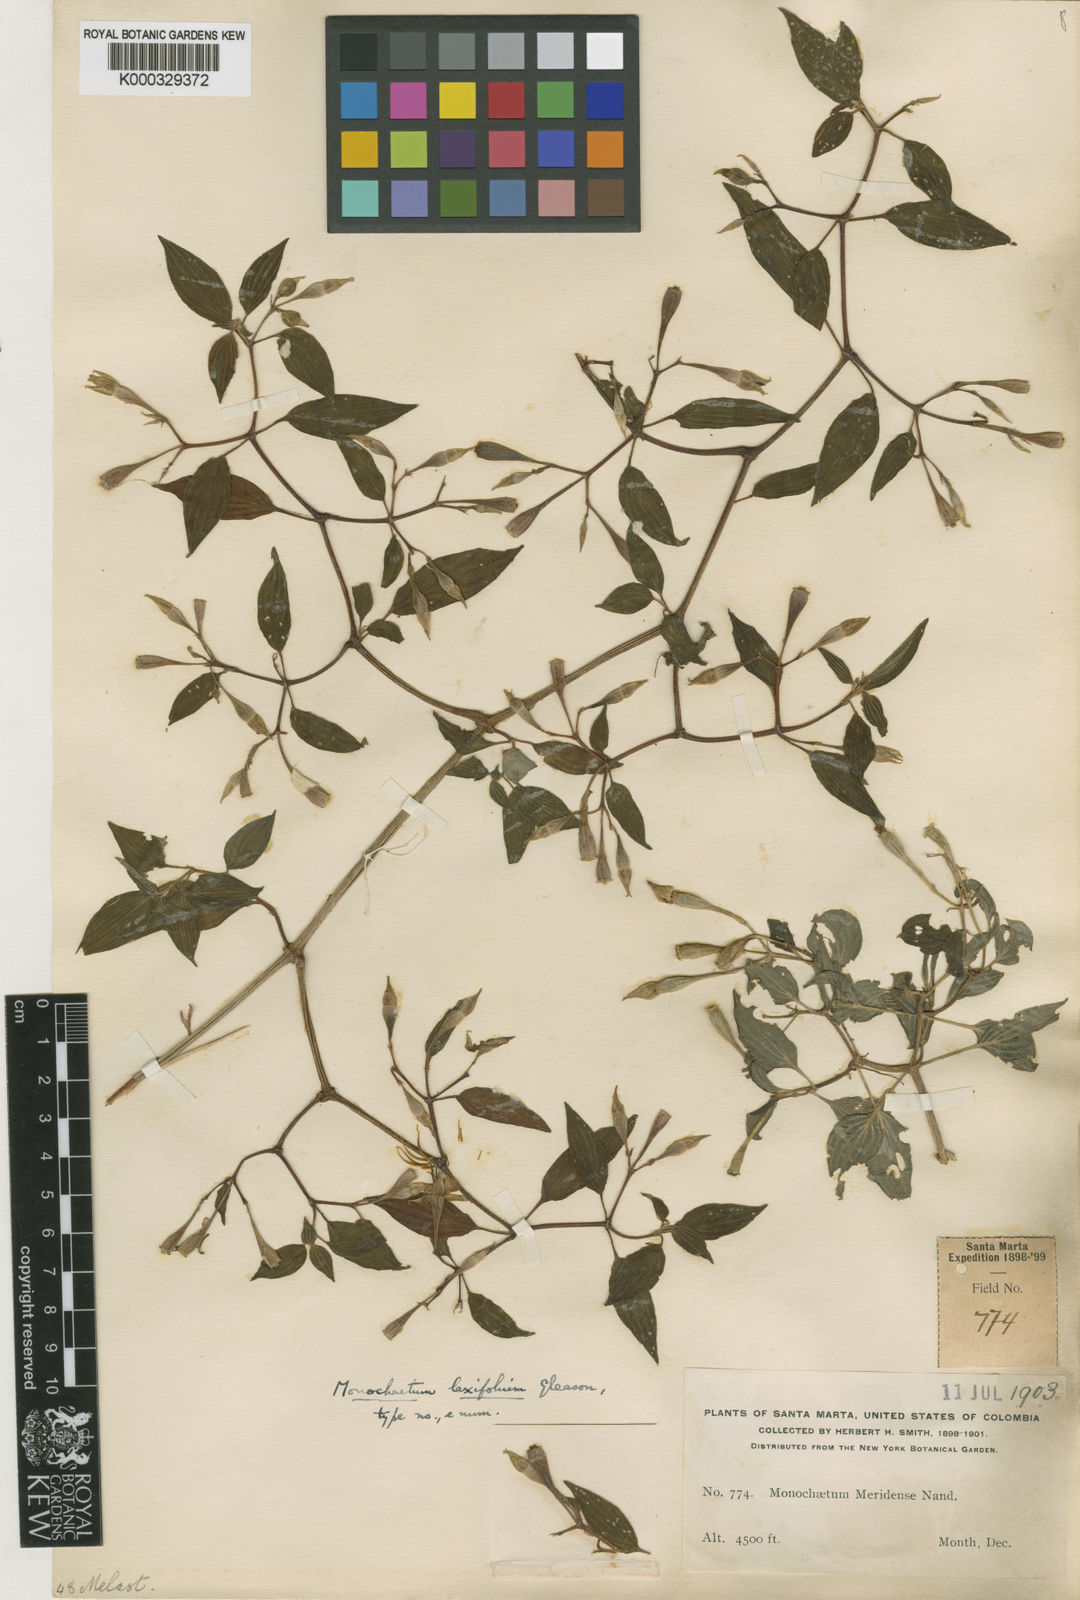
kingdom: Plantae
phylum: Tracheophyta
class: Magnoliopsida
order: Myrtales
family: Melastomataceae
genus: Monochaetum
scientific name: Monochaetum laxifolium
